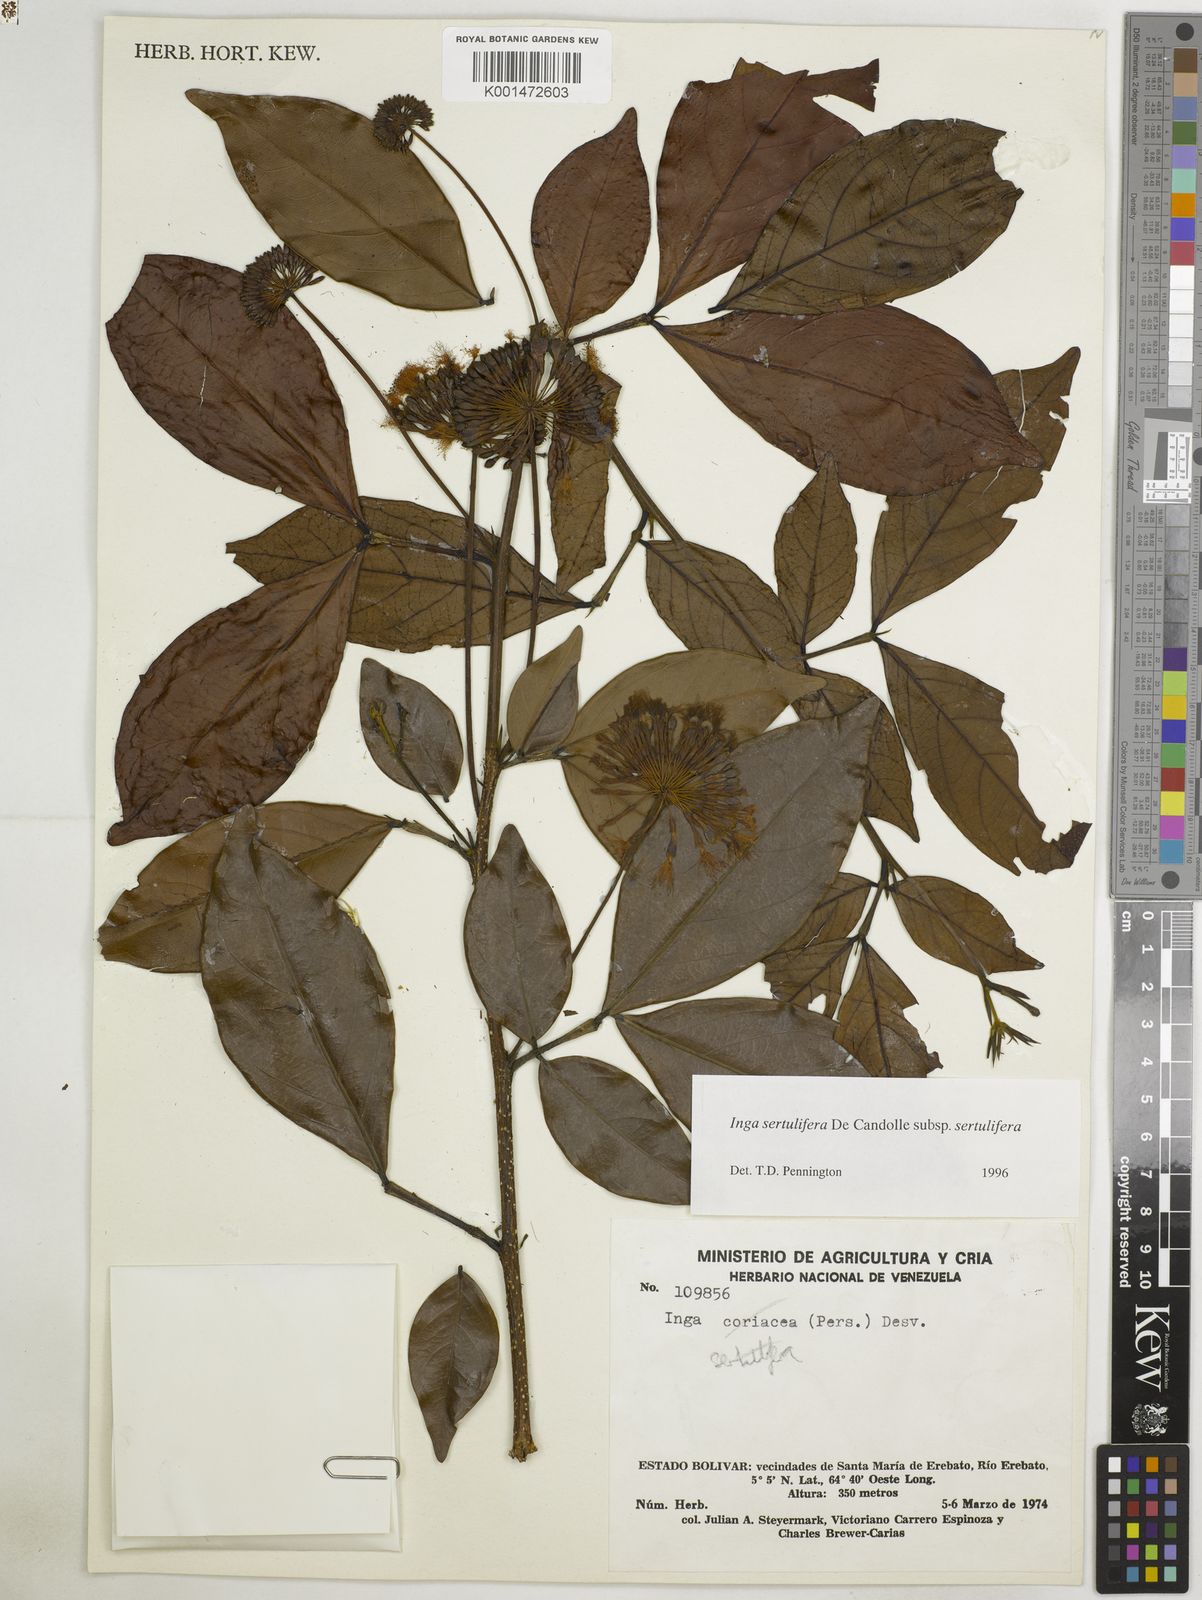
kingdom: Plantae
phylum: Tracheophyta
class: Magnoliopsida
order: Fabales
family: Fabaceae
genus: Inga
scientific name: Inga sertulifera
